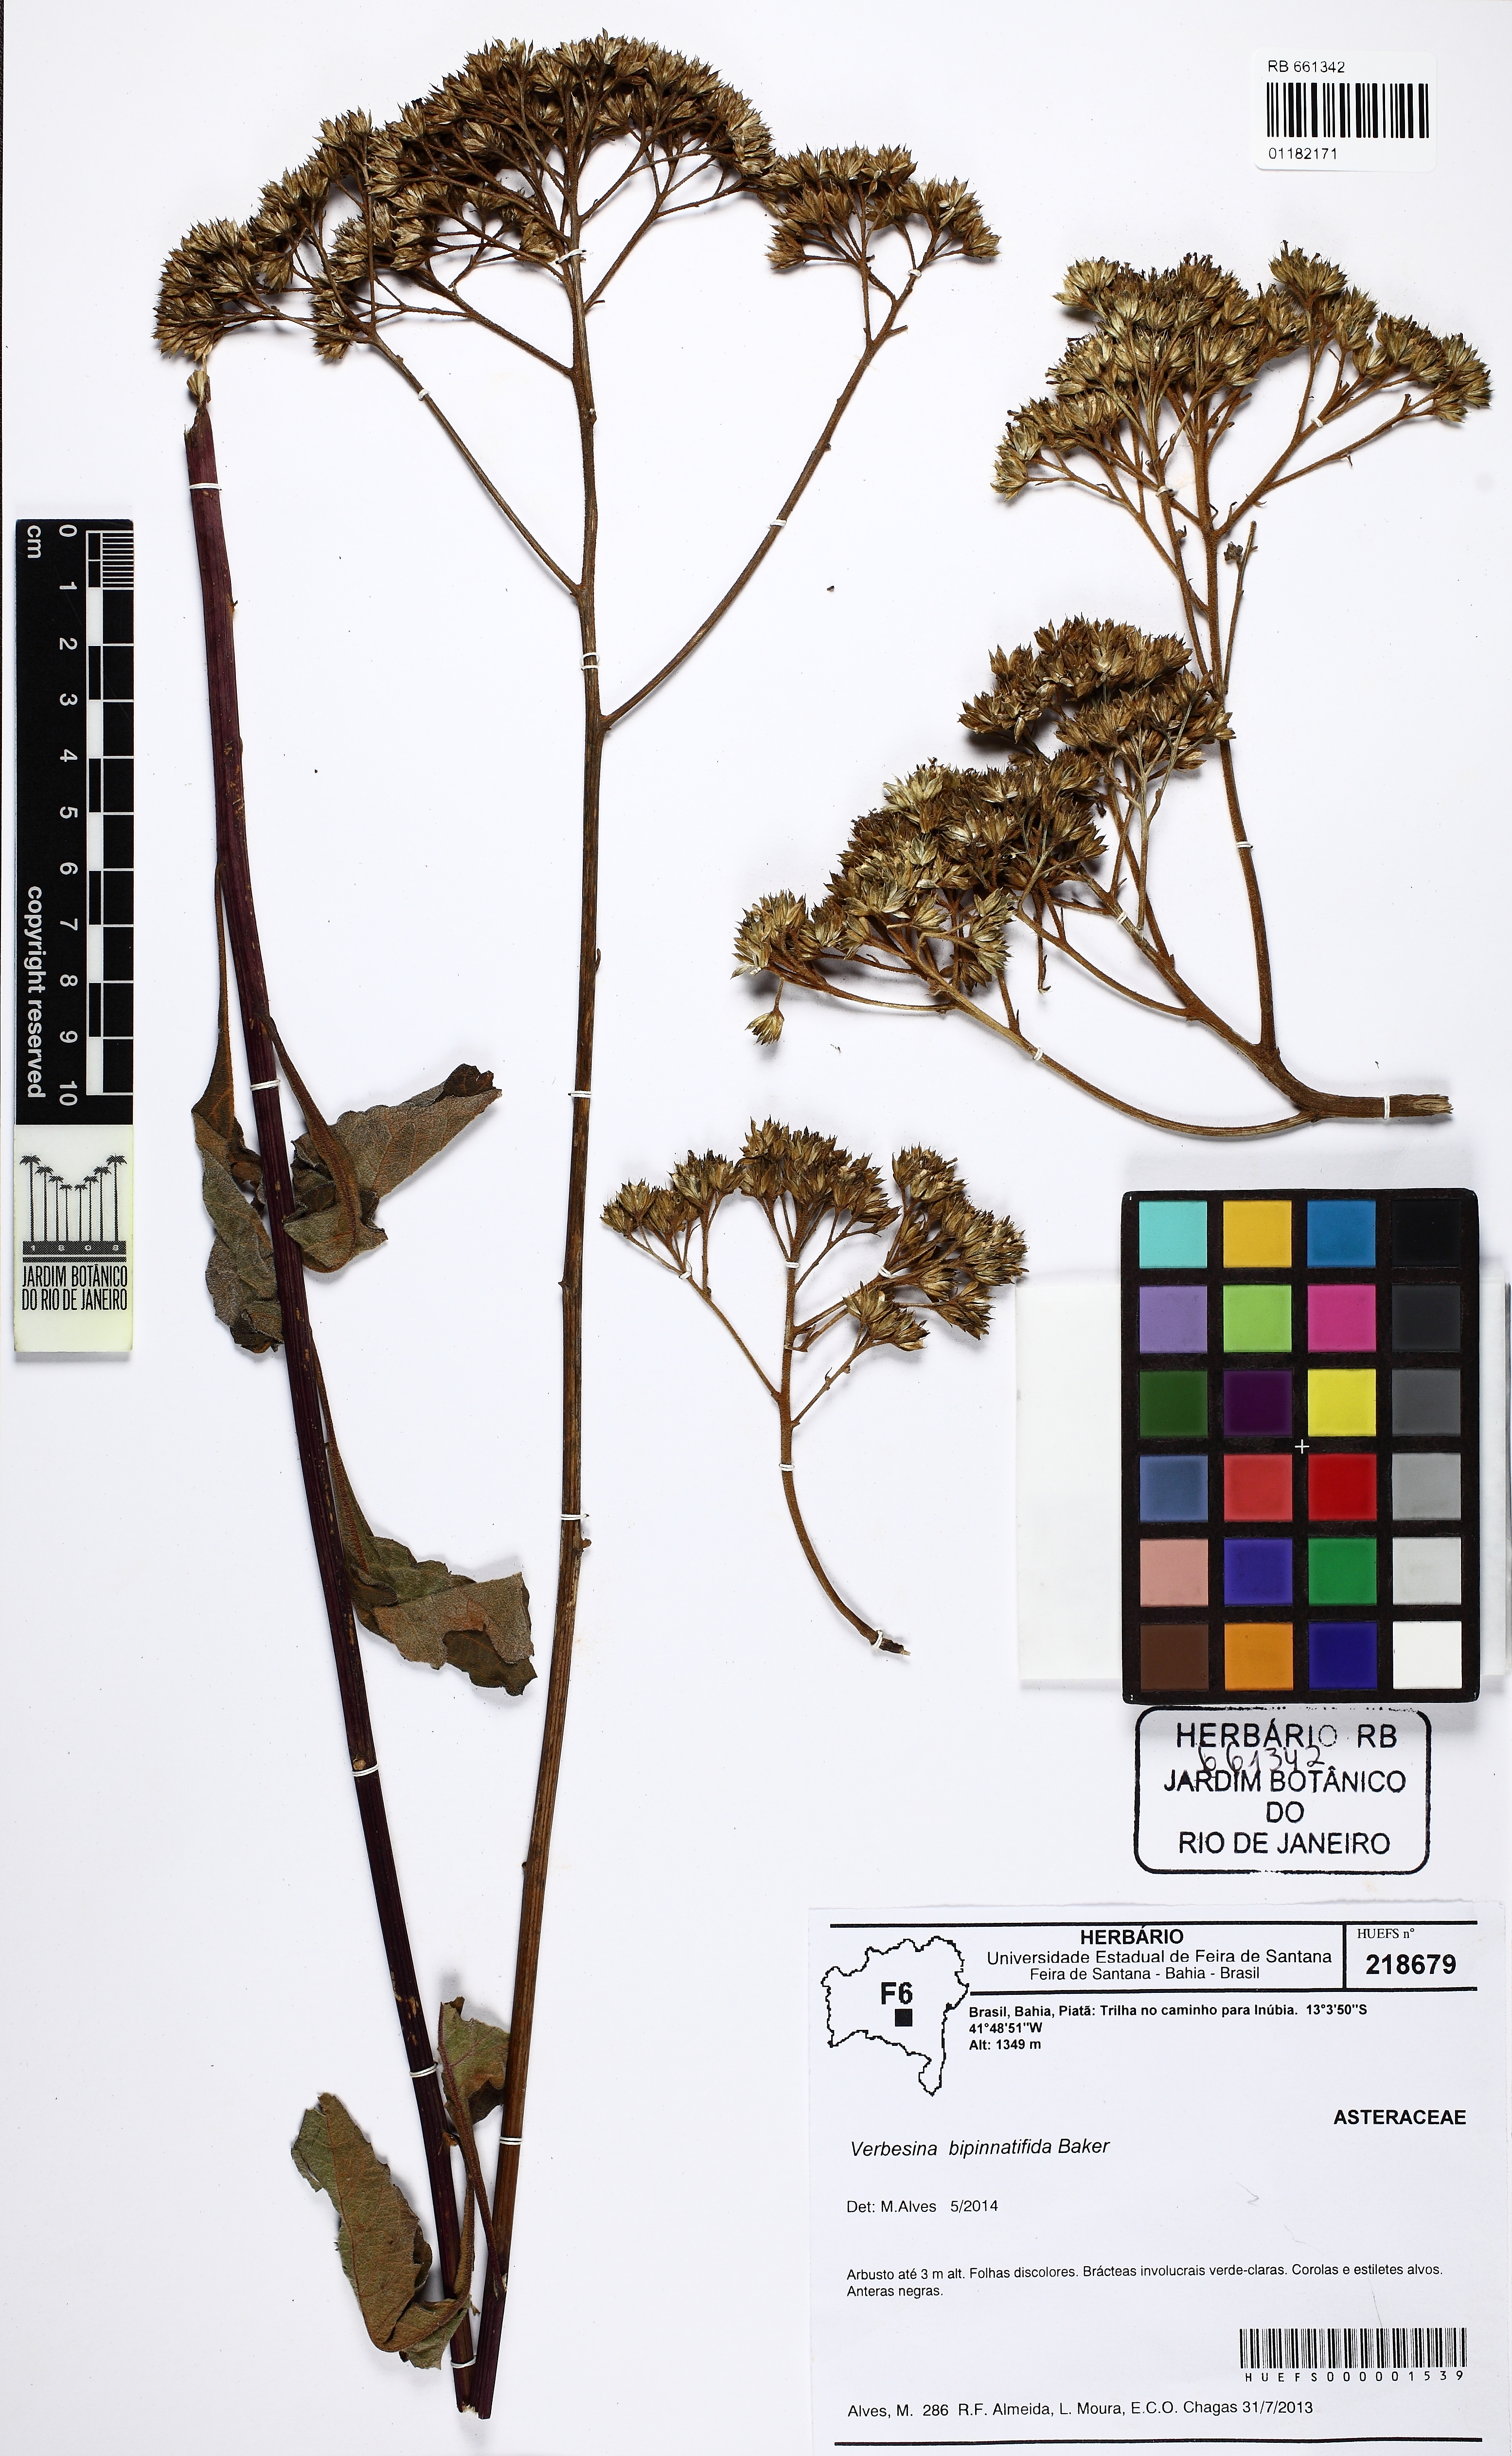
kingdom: Plantae
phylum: Tracheophyta
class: Magnoliopsida
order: Asterales
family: Asteraceae
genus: Verbesina
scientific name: Verbesina bipinnatifida
